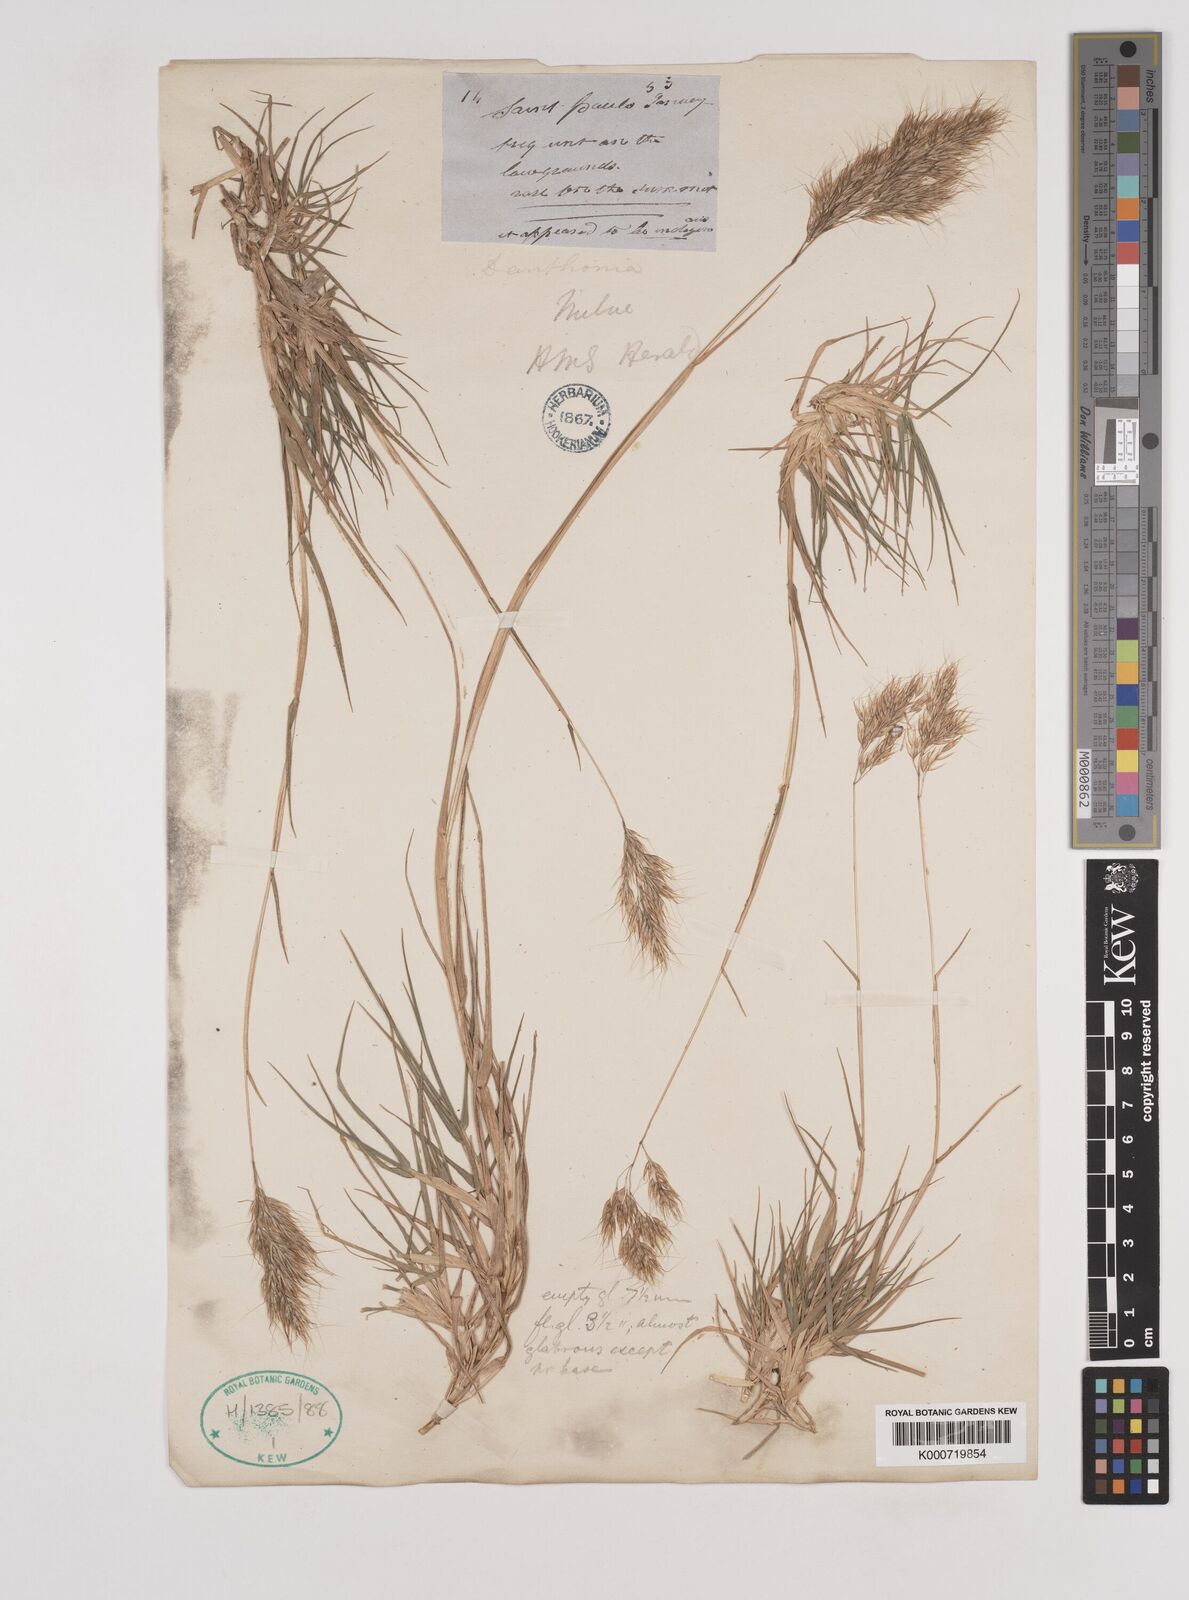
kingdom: Plantae
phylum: Tracheophyta
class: Liliopsida
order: Poales
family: Poaceae
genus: Pentameris
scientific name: Pentameris insularis
